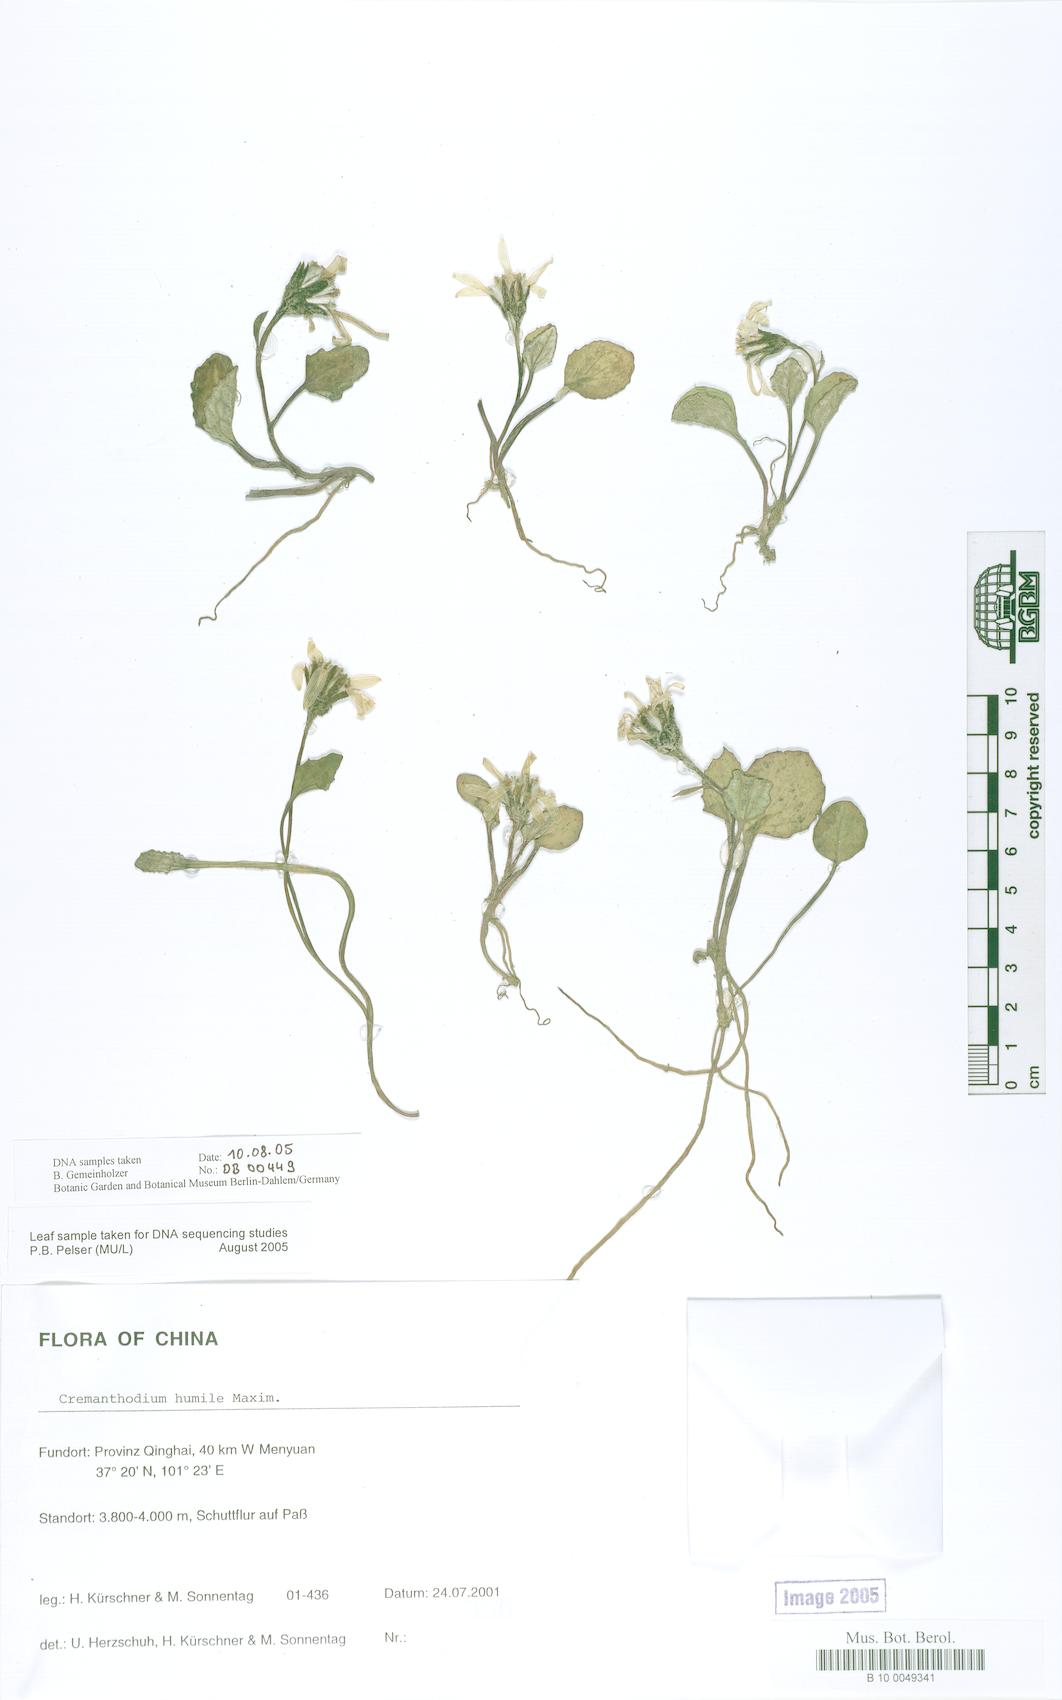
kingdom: Plantae
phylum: Tracheophyta
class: Magnoliopsida
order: Asterales
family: Asteraceae
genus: Cremanthodium
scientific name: Cremanthodium humile
